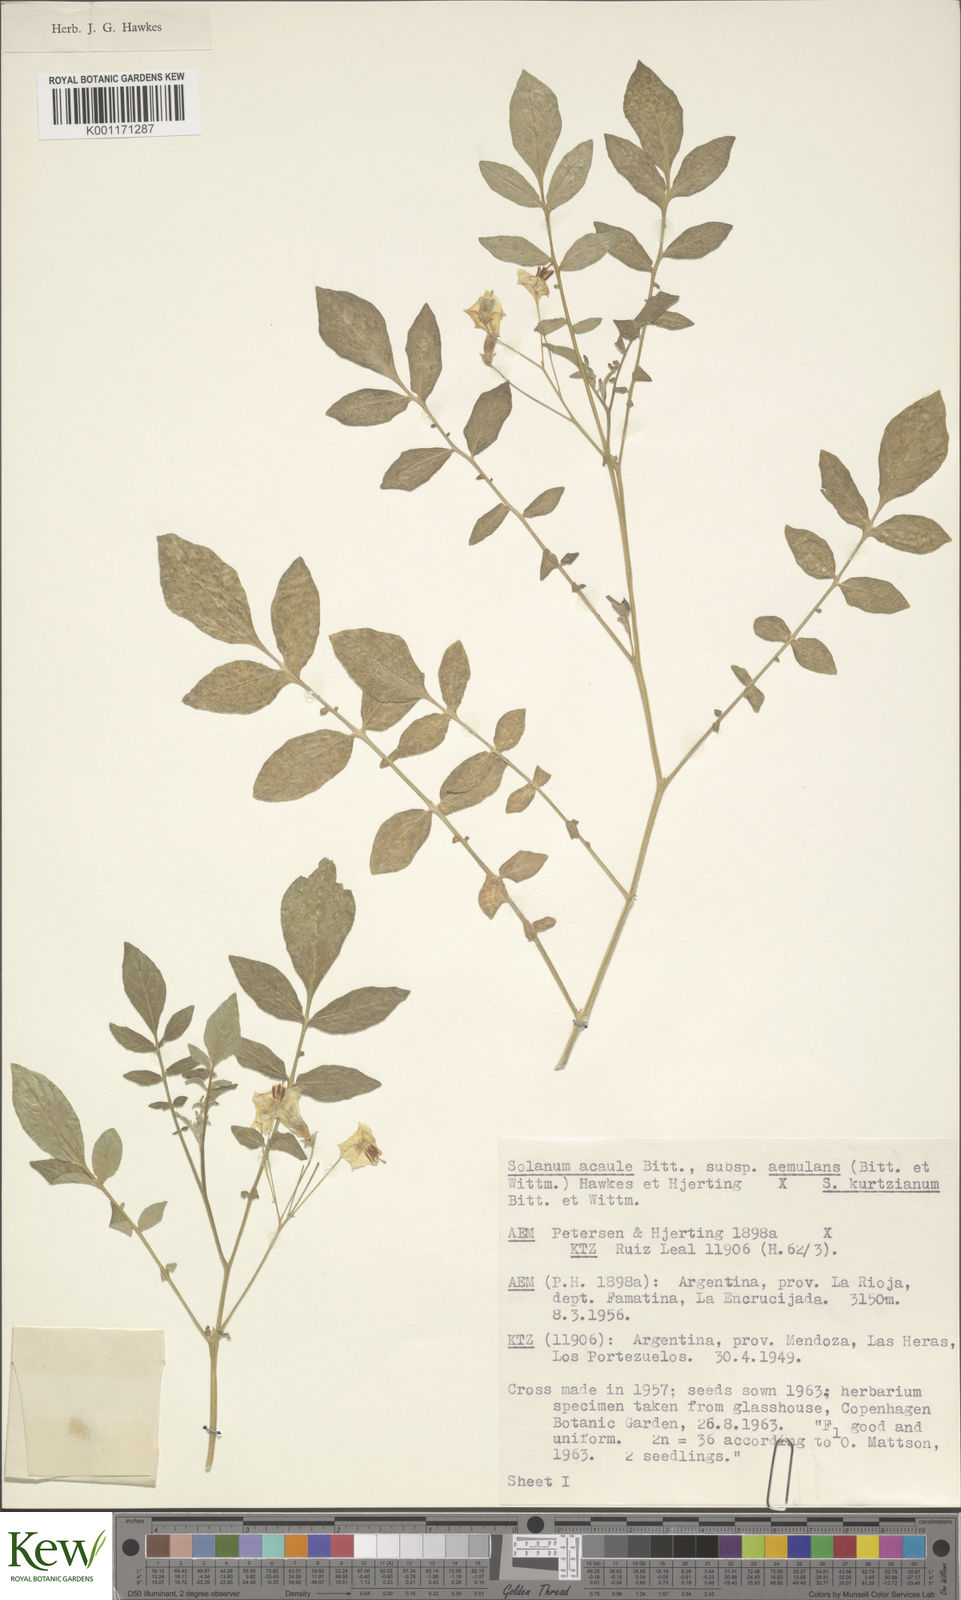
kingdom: Plantae
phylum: Tracheophyta
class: Magnoliopsida
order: Solanales
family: Solanaceae
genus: Solanum
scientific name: Solanum aemulans
